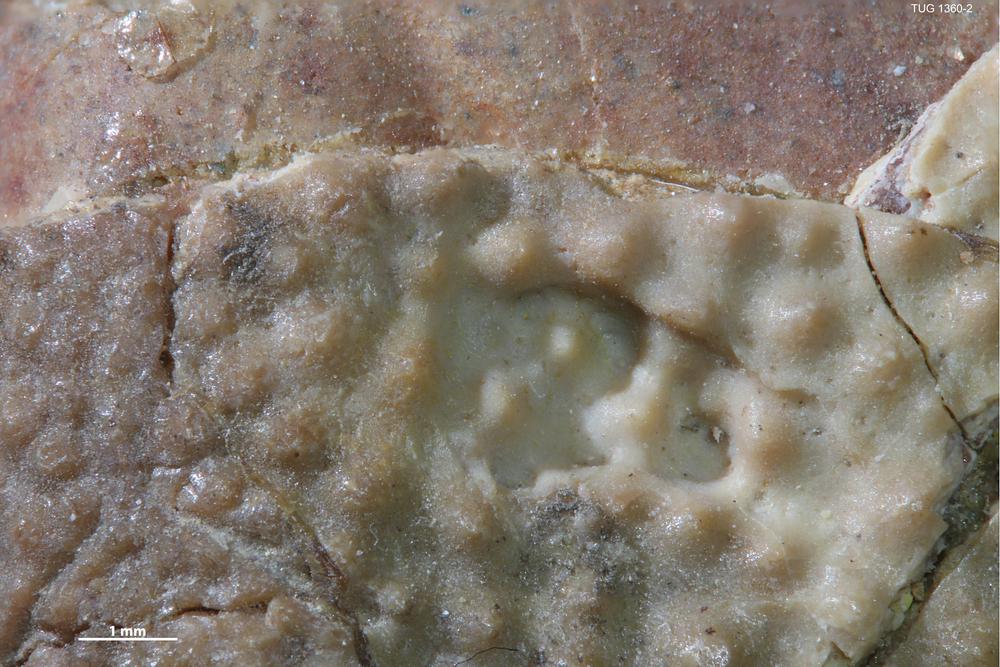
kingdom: Animalia
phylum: Chordata
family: Asterolepididae
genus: Asterolepis
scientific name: Asterolepis estonica
